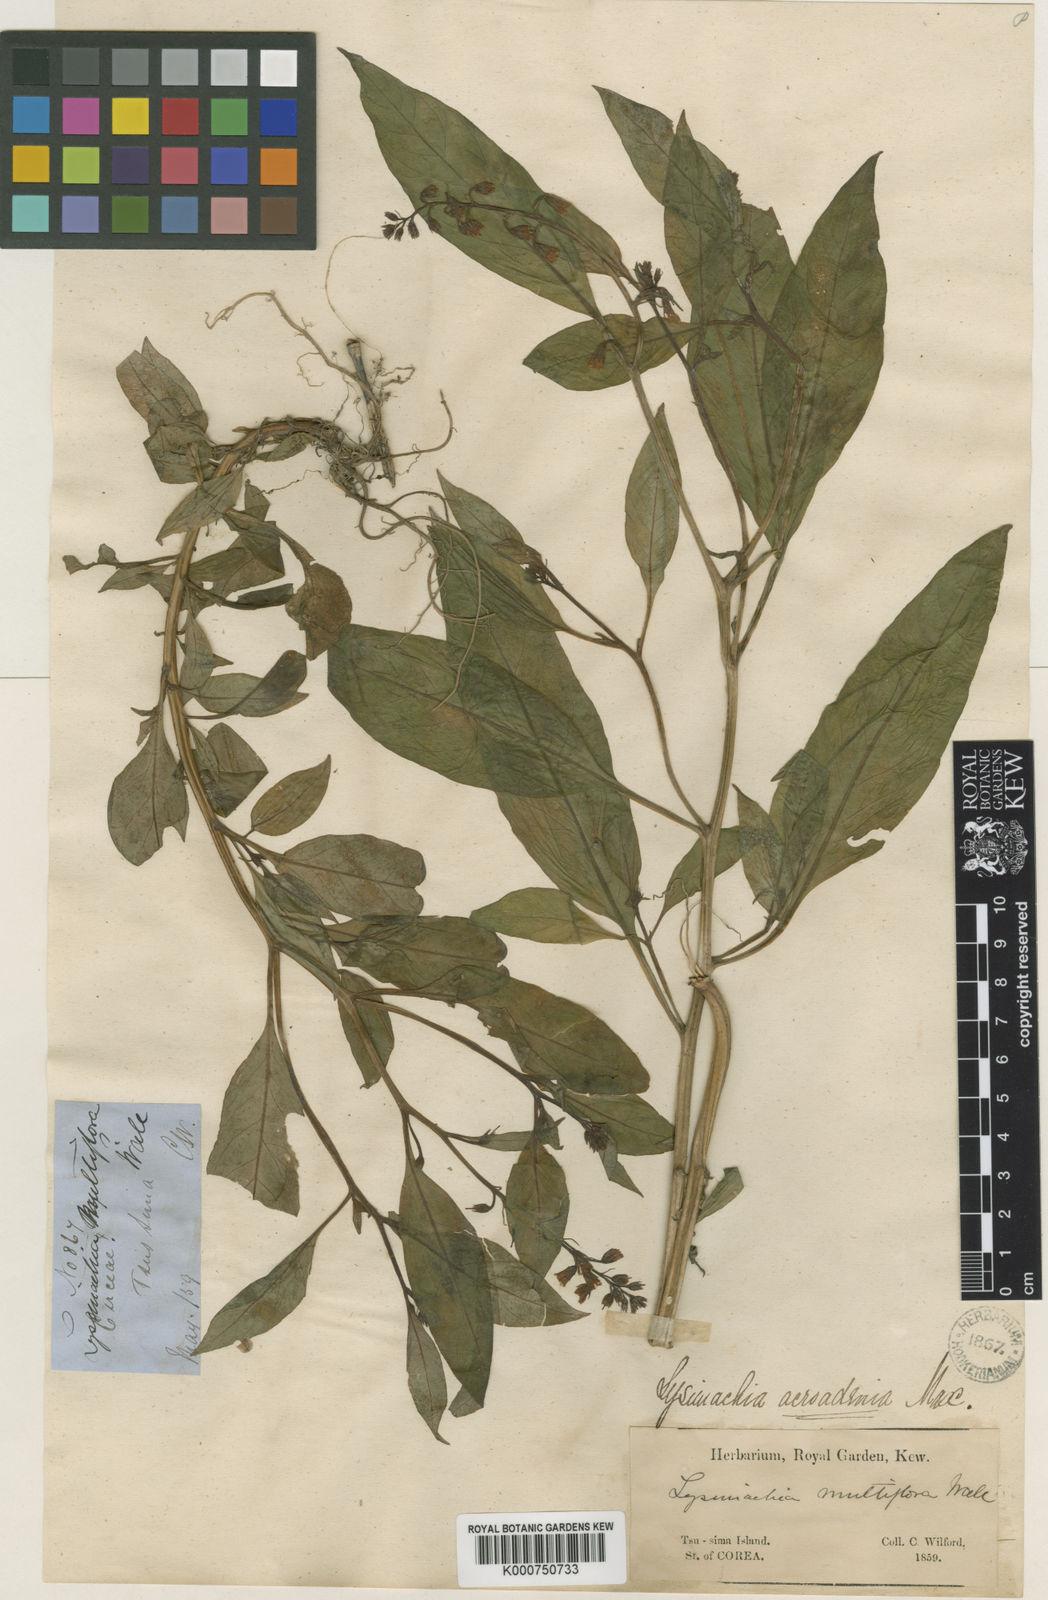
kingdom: Plantae
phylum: Tracheophyta
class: Magnoliopsida
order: Ericales
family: Primulaceae
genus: Lysimachia
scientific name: Lysimachia acroadenia
